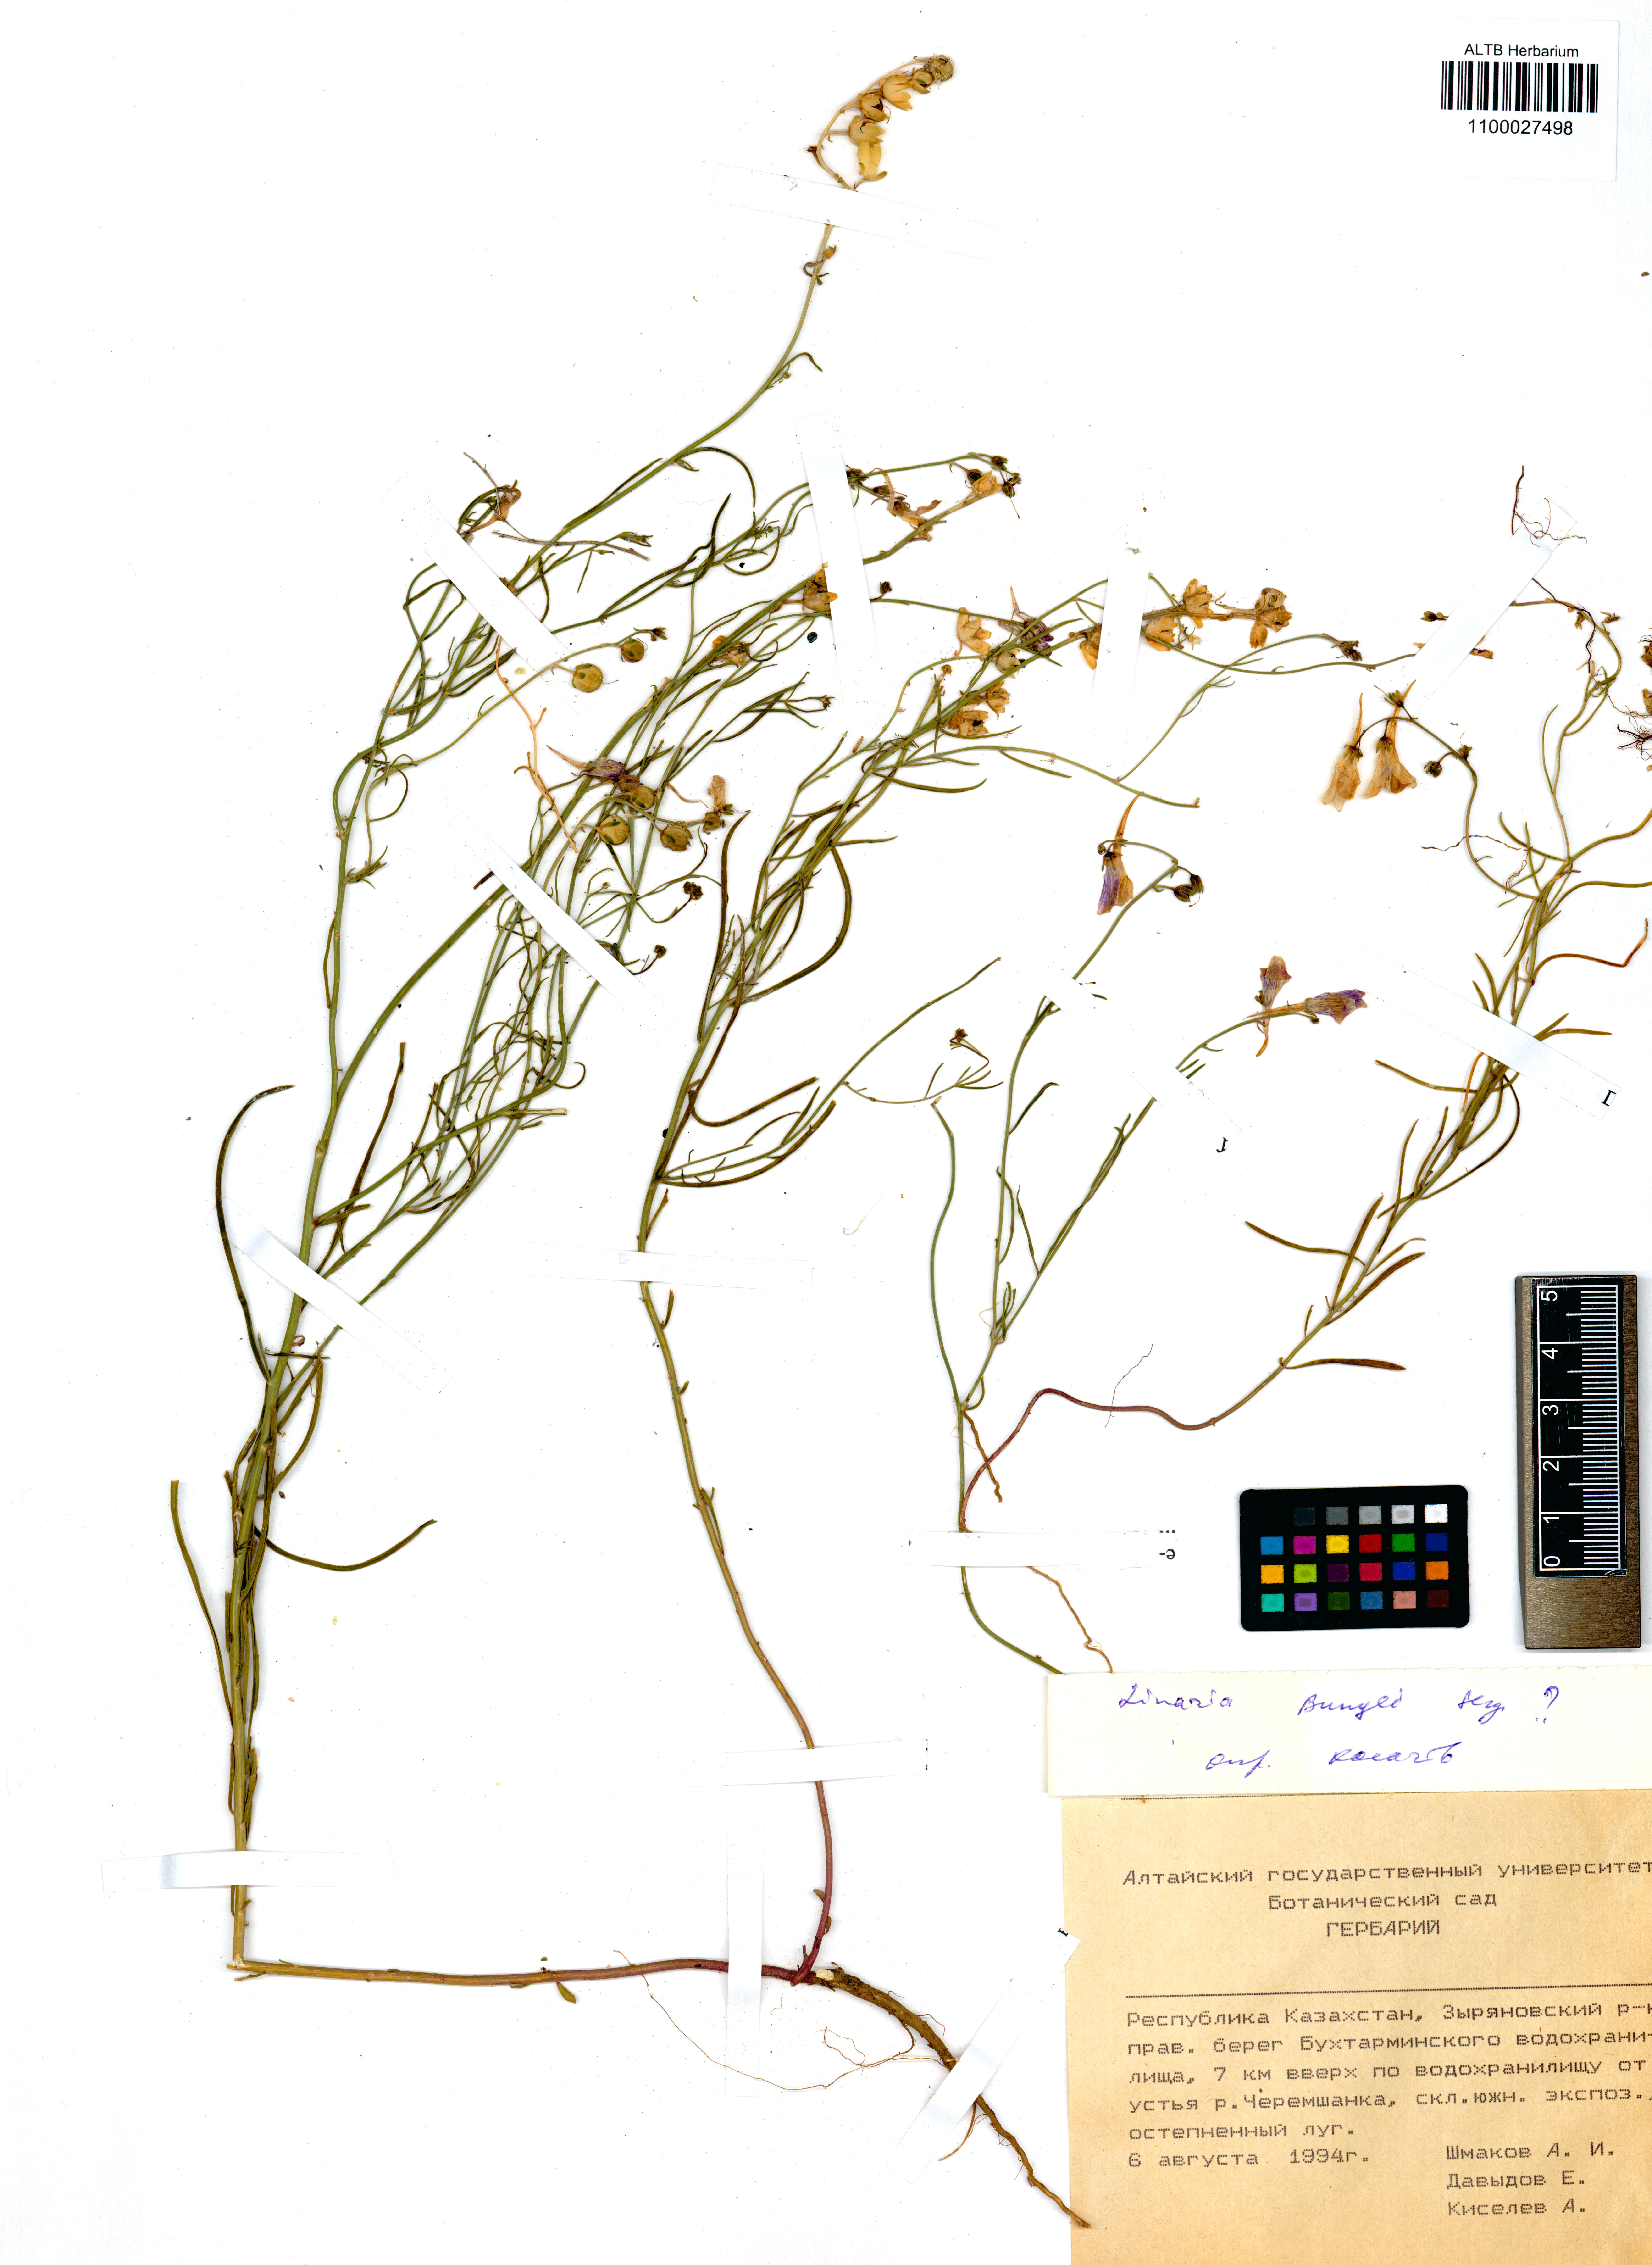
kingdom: Plantae
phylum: Tracheophyta
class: Magnoliopsida
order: Lamiales
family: Plantaginaceae
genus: Linaria
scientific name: Linaria bungei
